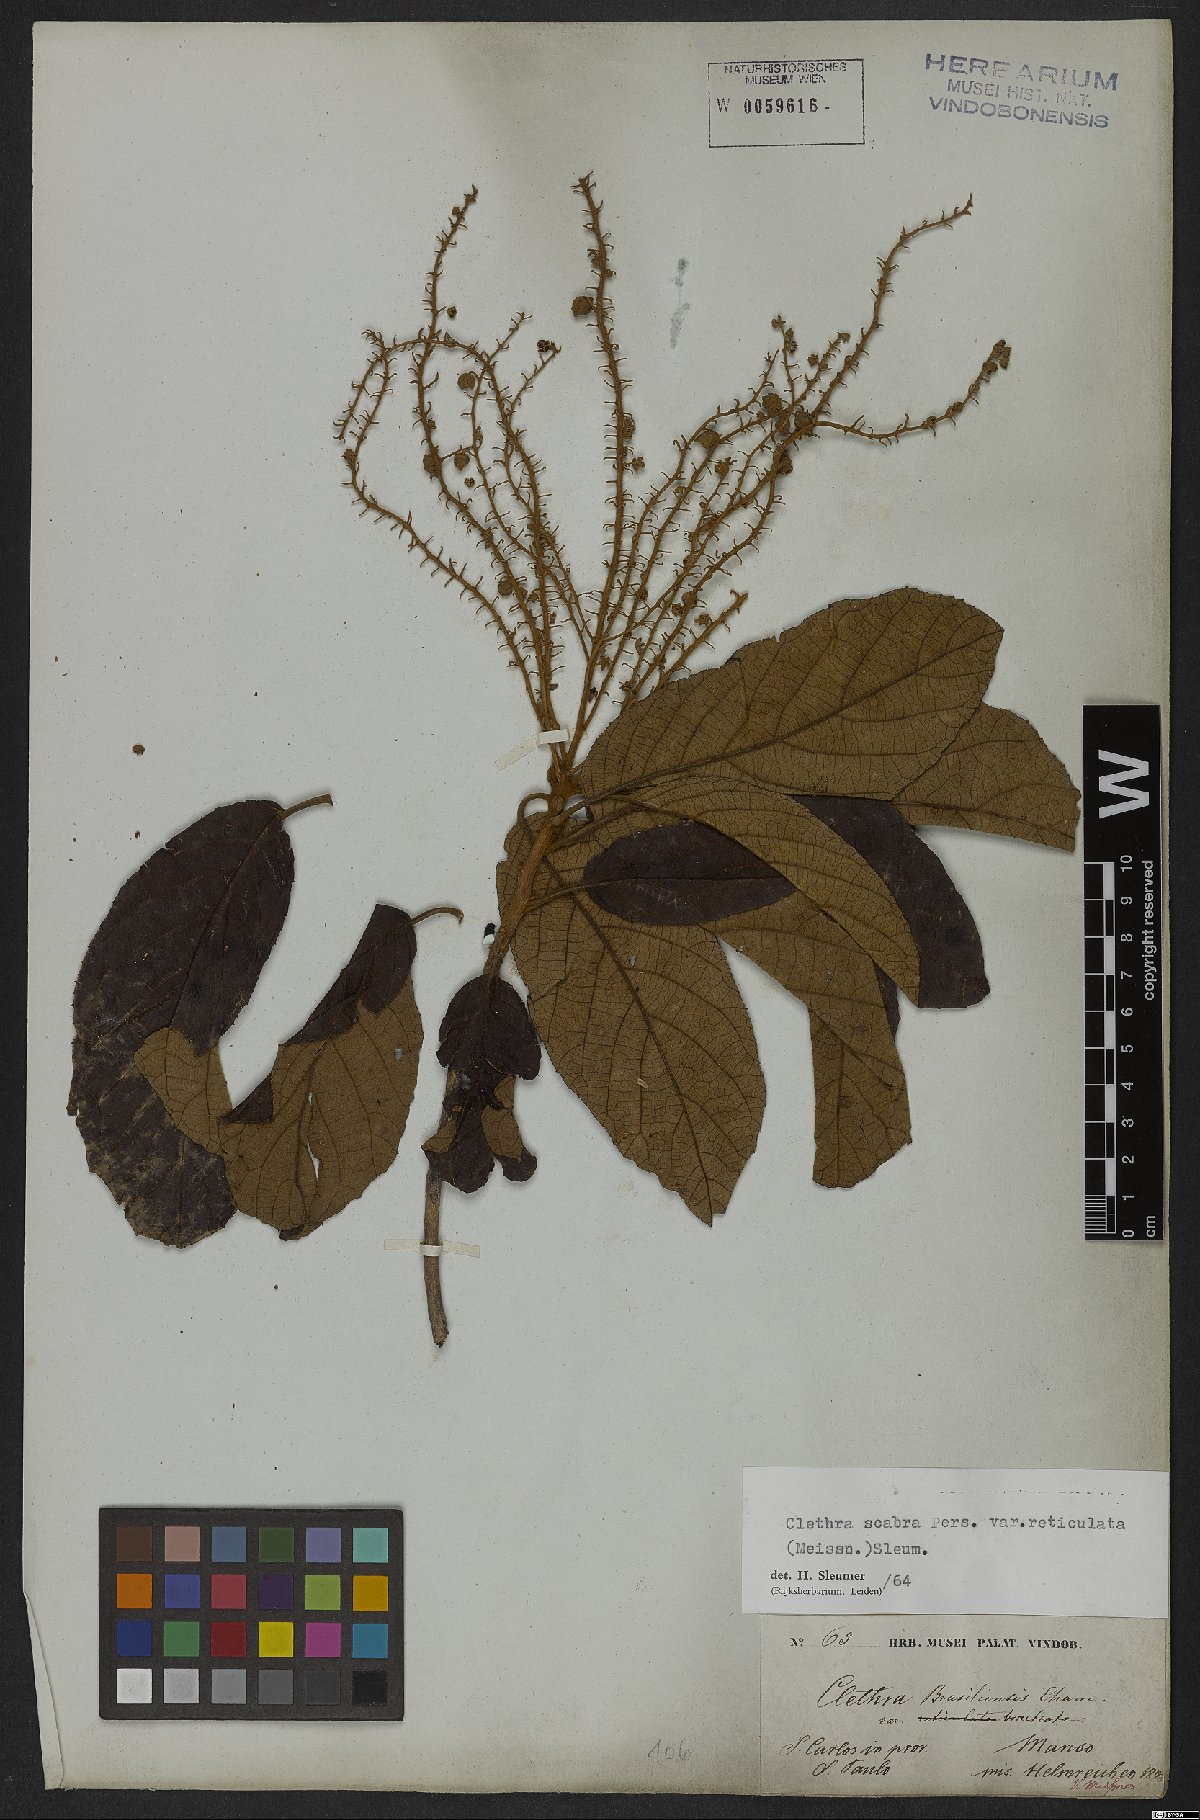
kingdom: Plantae
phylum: Tracheophyta
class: Magnoliopsida
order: Ericales
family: Clethraceae
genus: Clethra
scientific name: Clethra scabra
